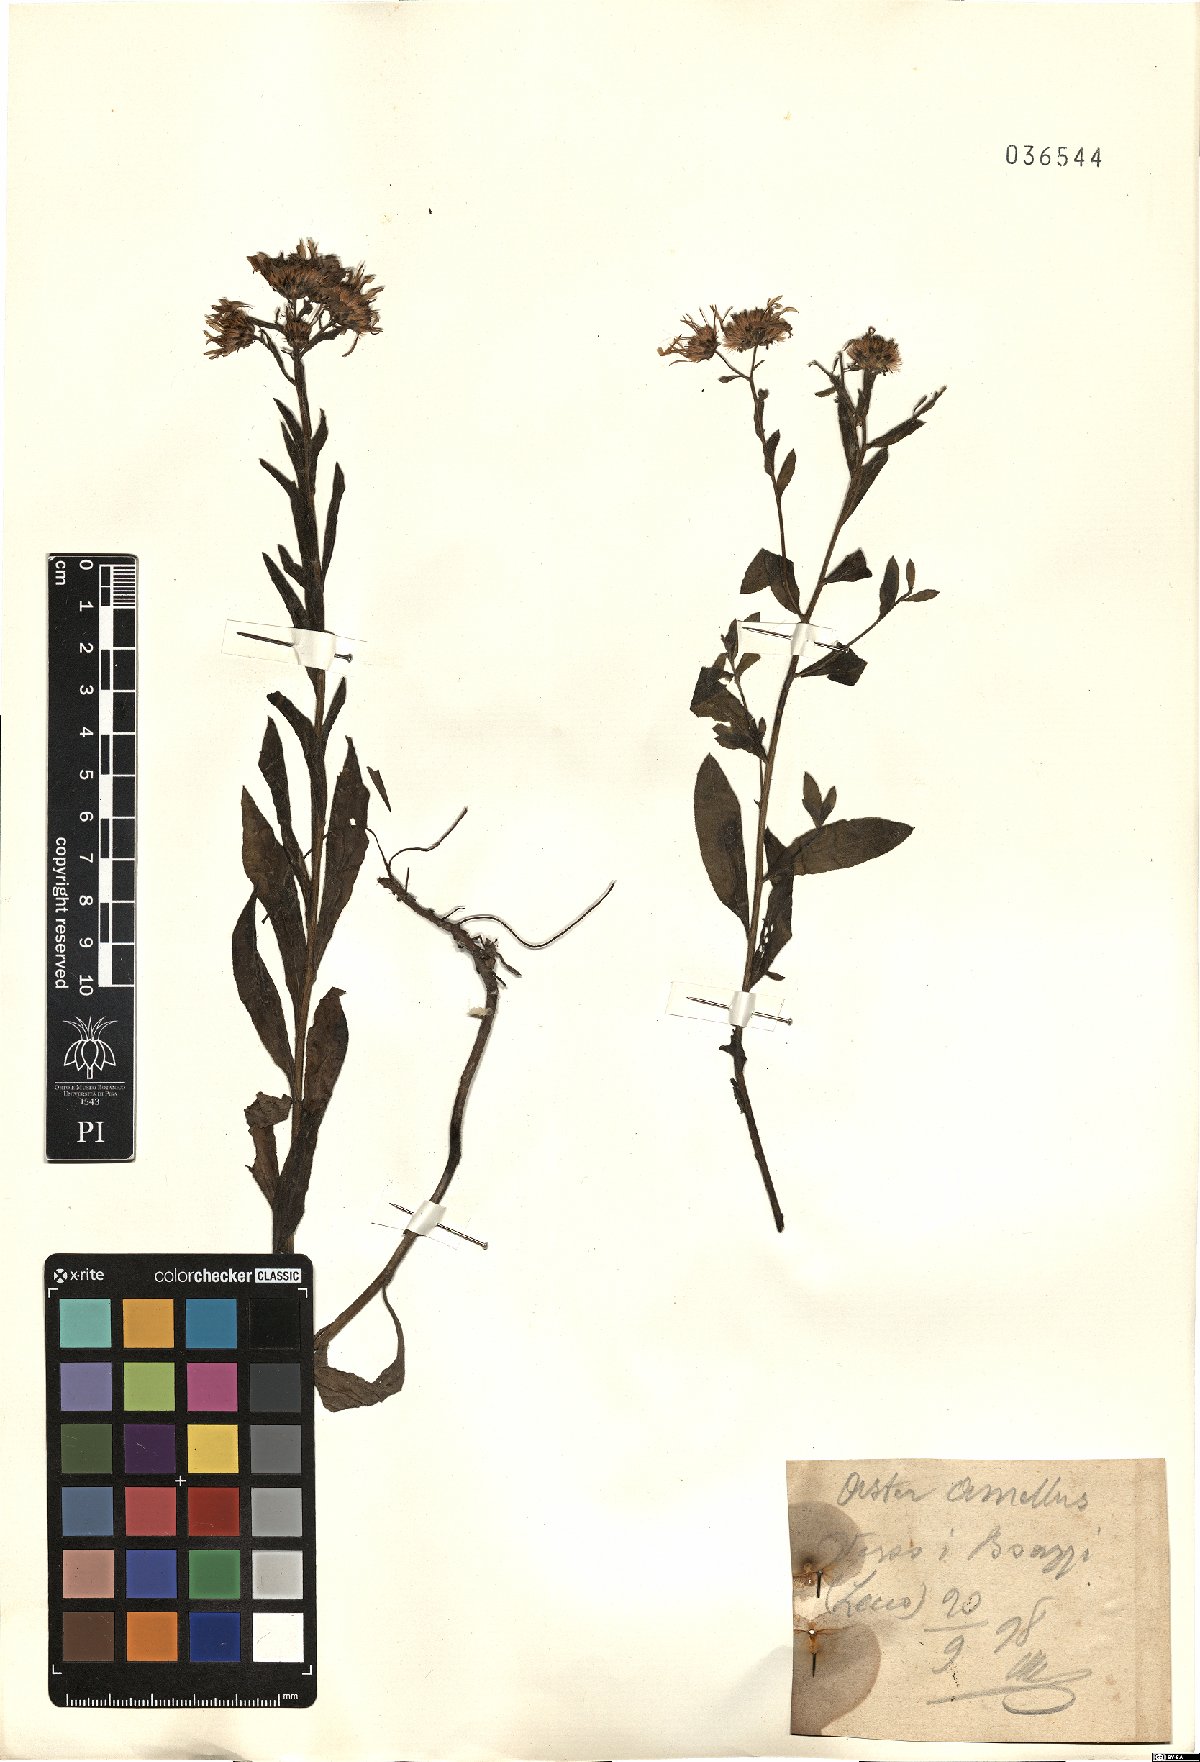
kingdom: Plantae
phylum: Tracheophyta
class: Magnoliopsida
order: Asterales
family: Asteraceae
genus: Aster
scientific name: Aster amellus
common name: European michaelmas daisy
